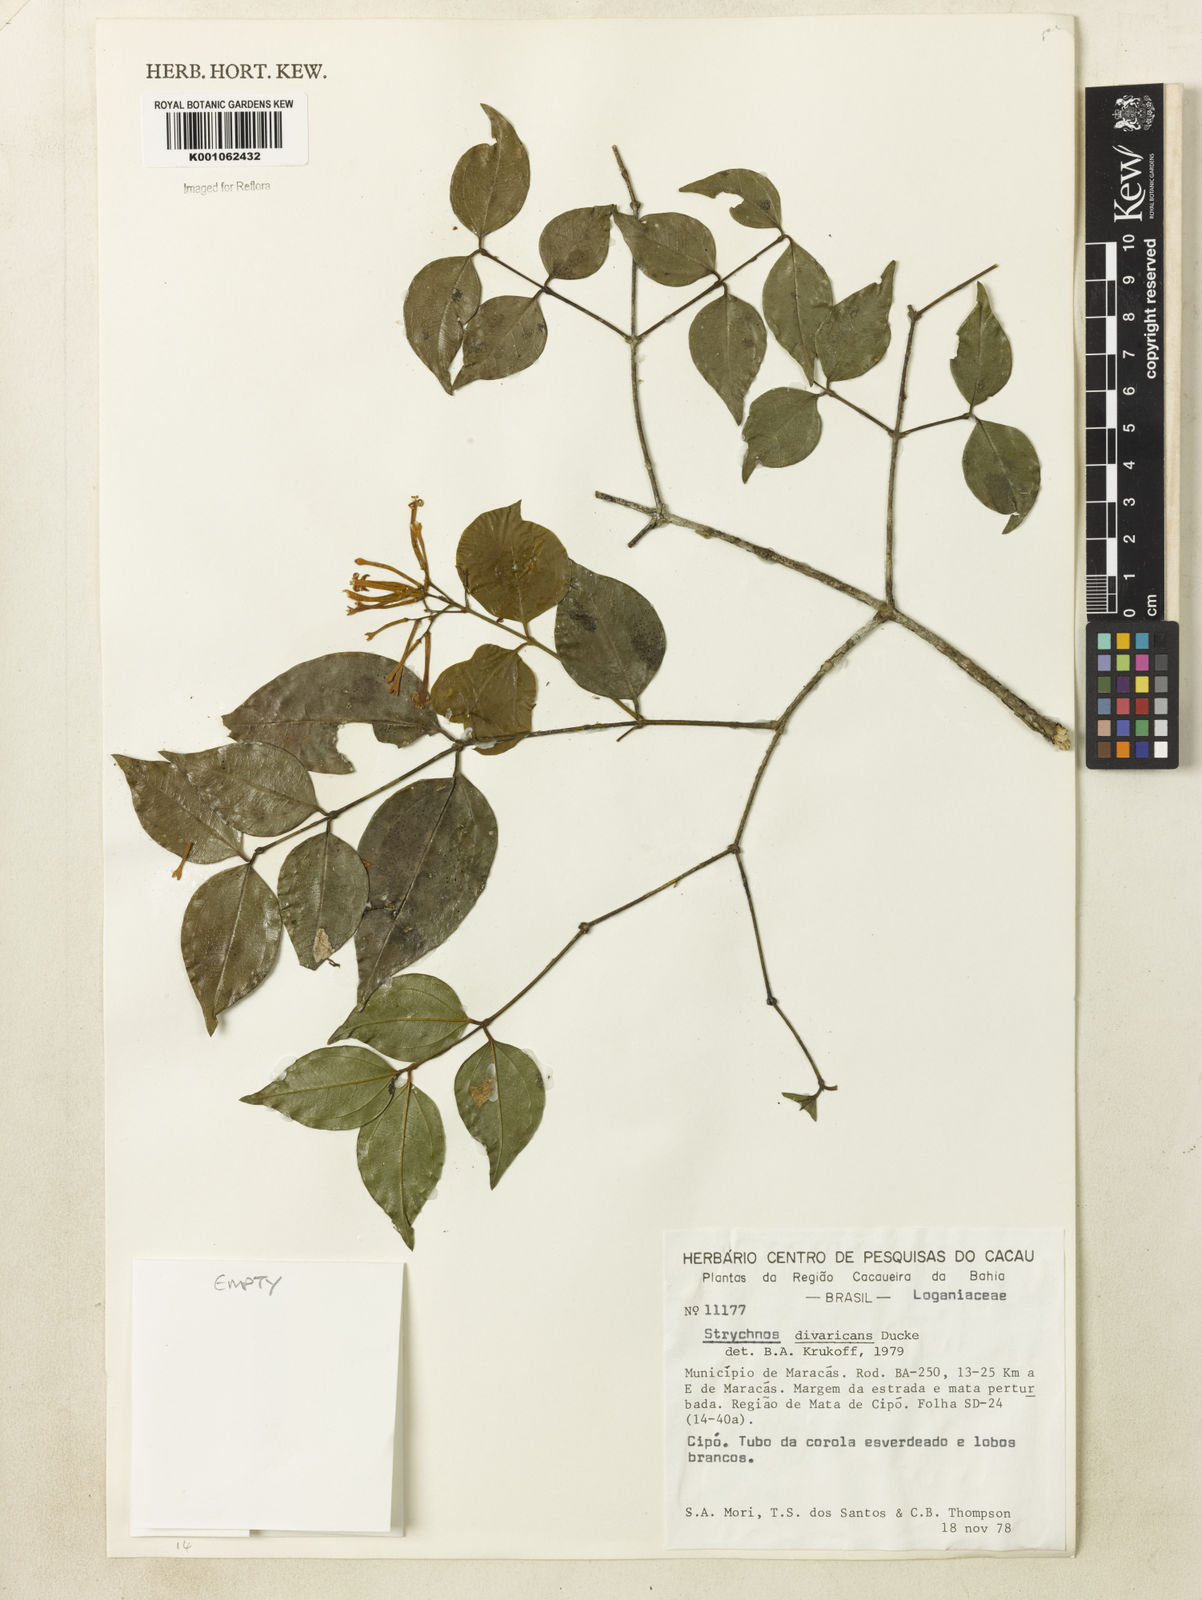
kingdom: Plantae
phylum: Tracheophyta
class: Magnoliopsida
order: Gentianales
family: Loganiaceae
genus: Strychnos
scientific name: Strychnos divaricans
